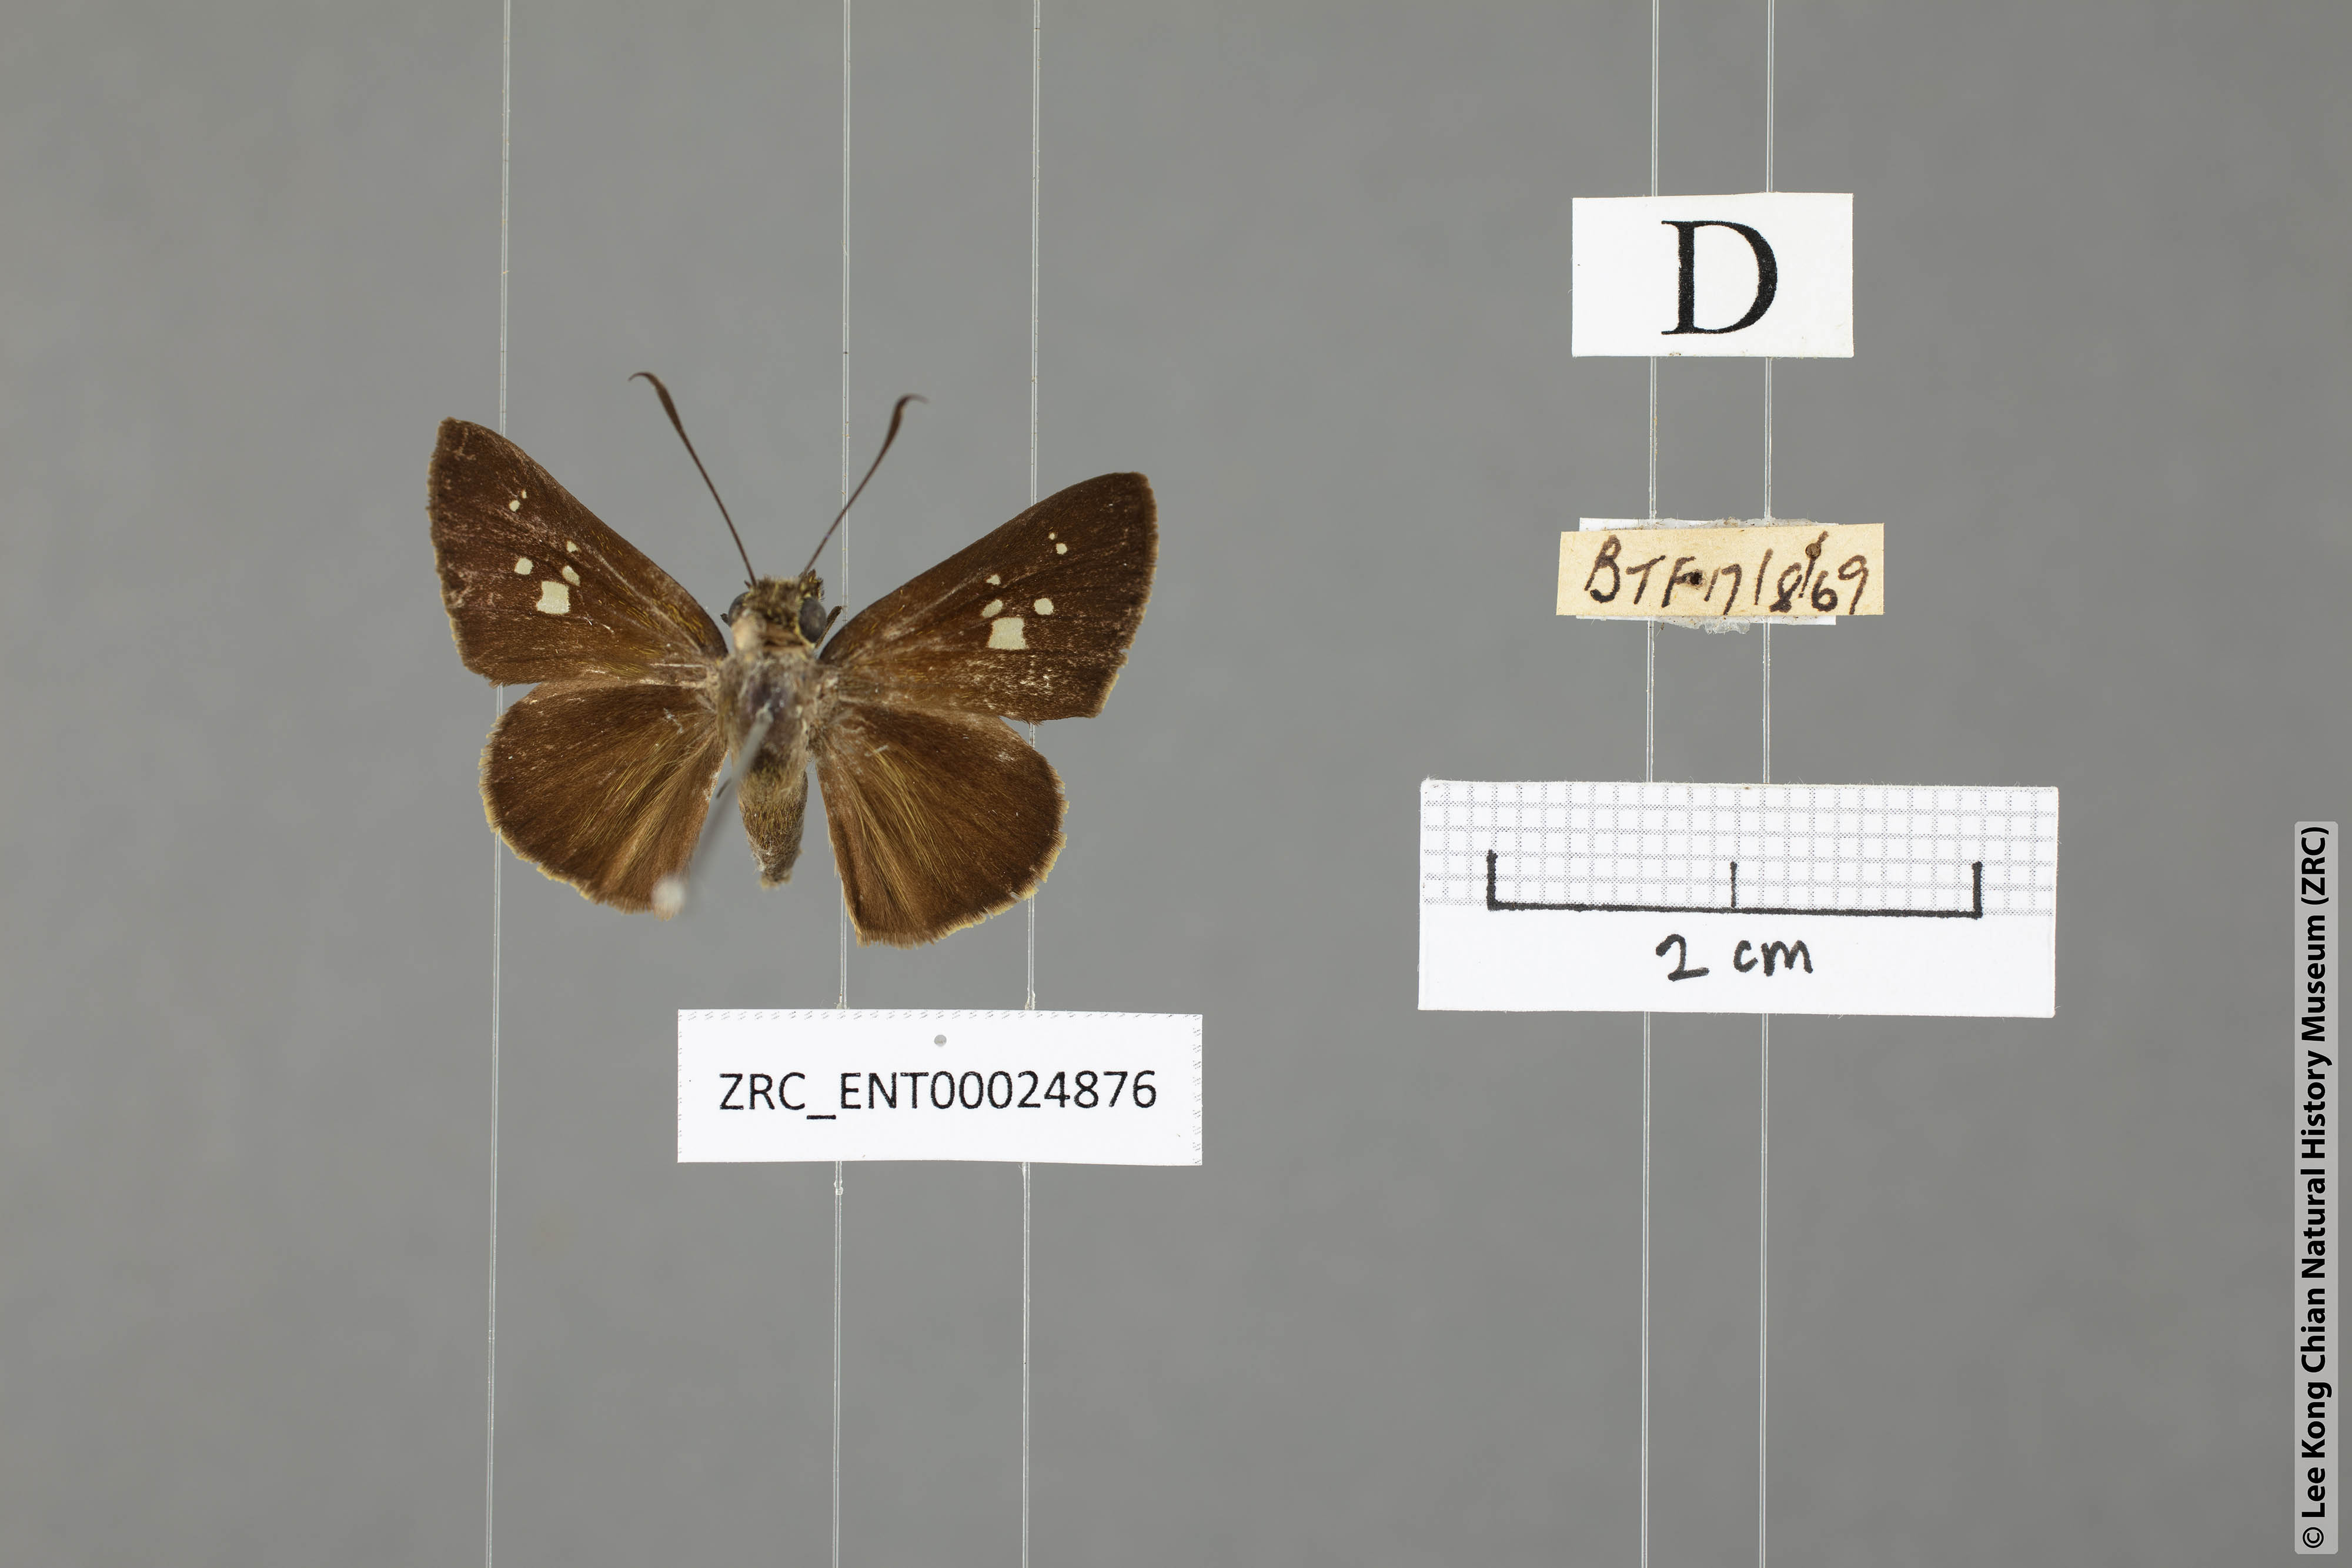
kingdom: Animalia
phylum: Arthropoda
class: Insecta
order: Lepidoptera
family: Hesperiidae
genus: Isma
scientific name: Isma protoclea
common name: Bicolour long-horned flitter
